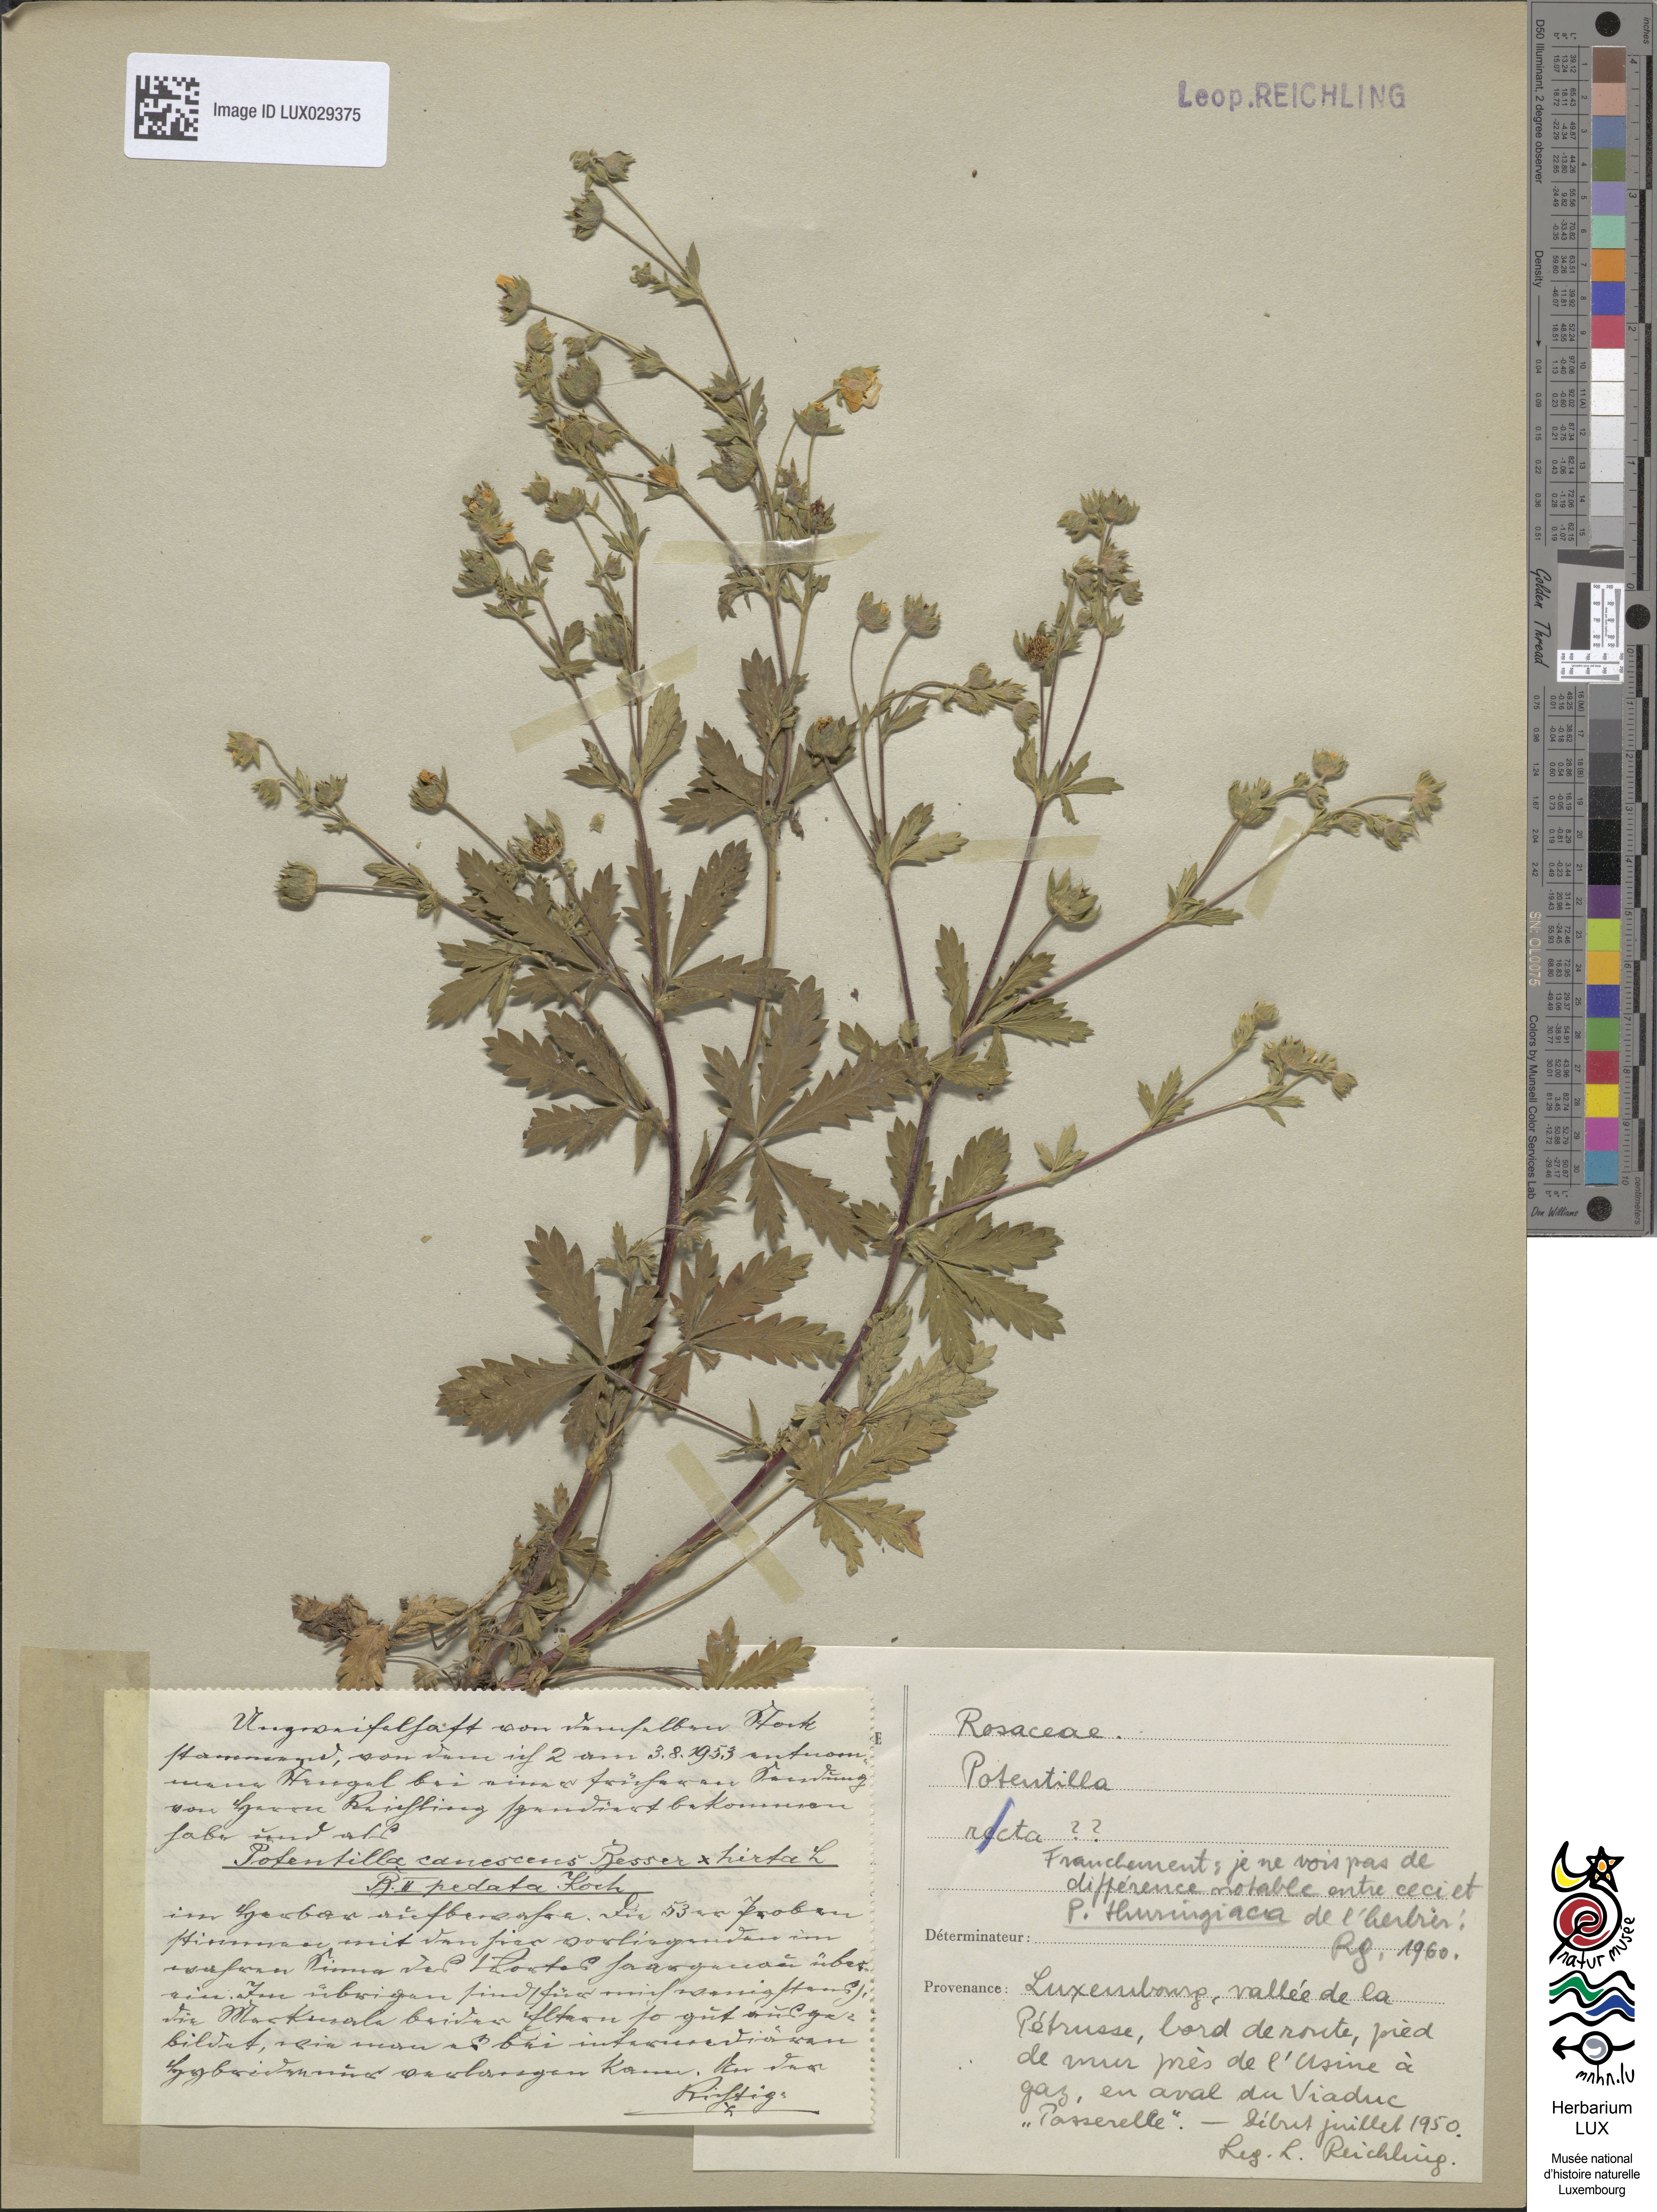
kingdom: Plantae
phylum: Tracheophyta
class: Magnoliopsida
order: Rosales
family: Rosaceae
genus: Potentilla
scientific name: Potentilla
